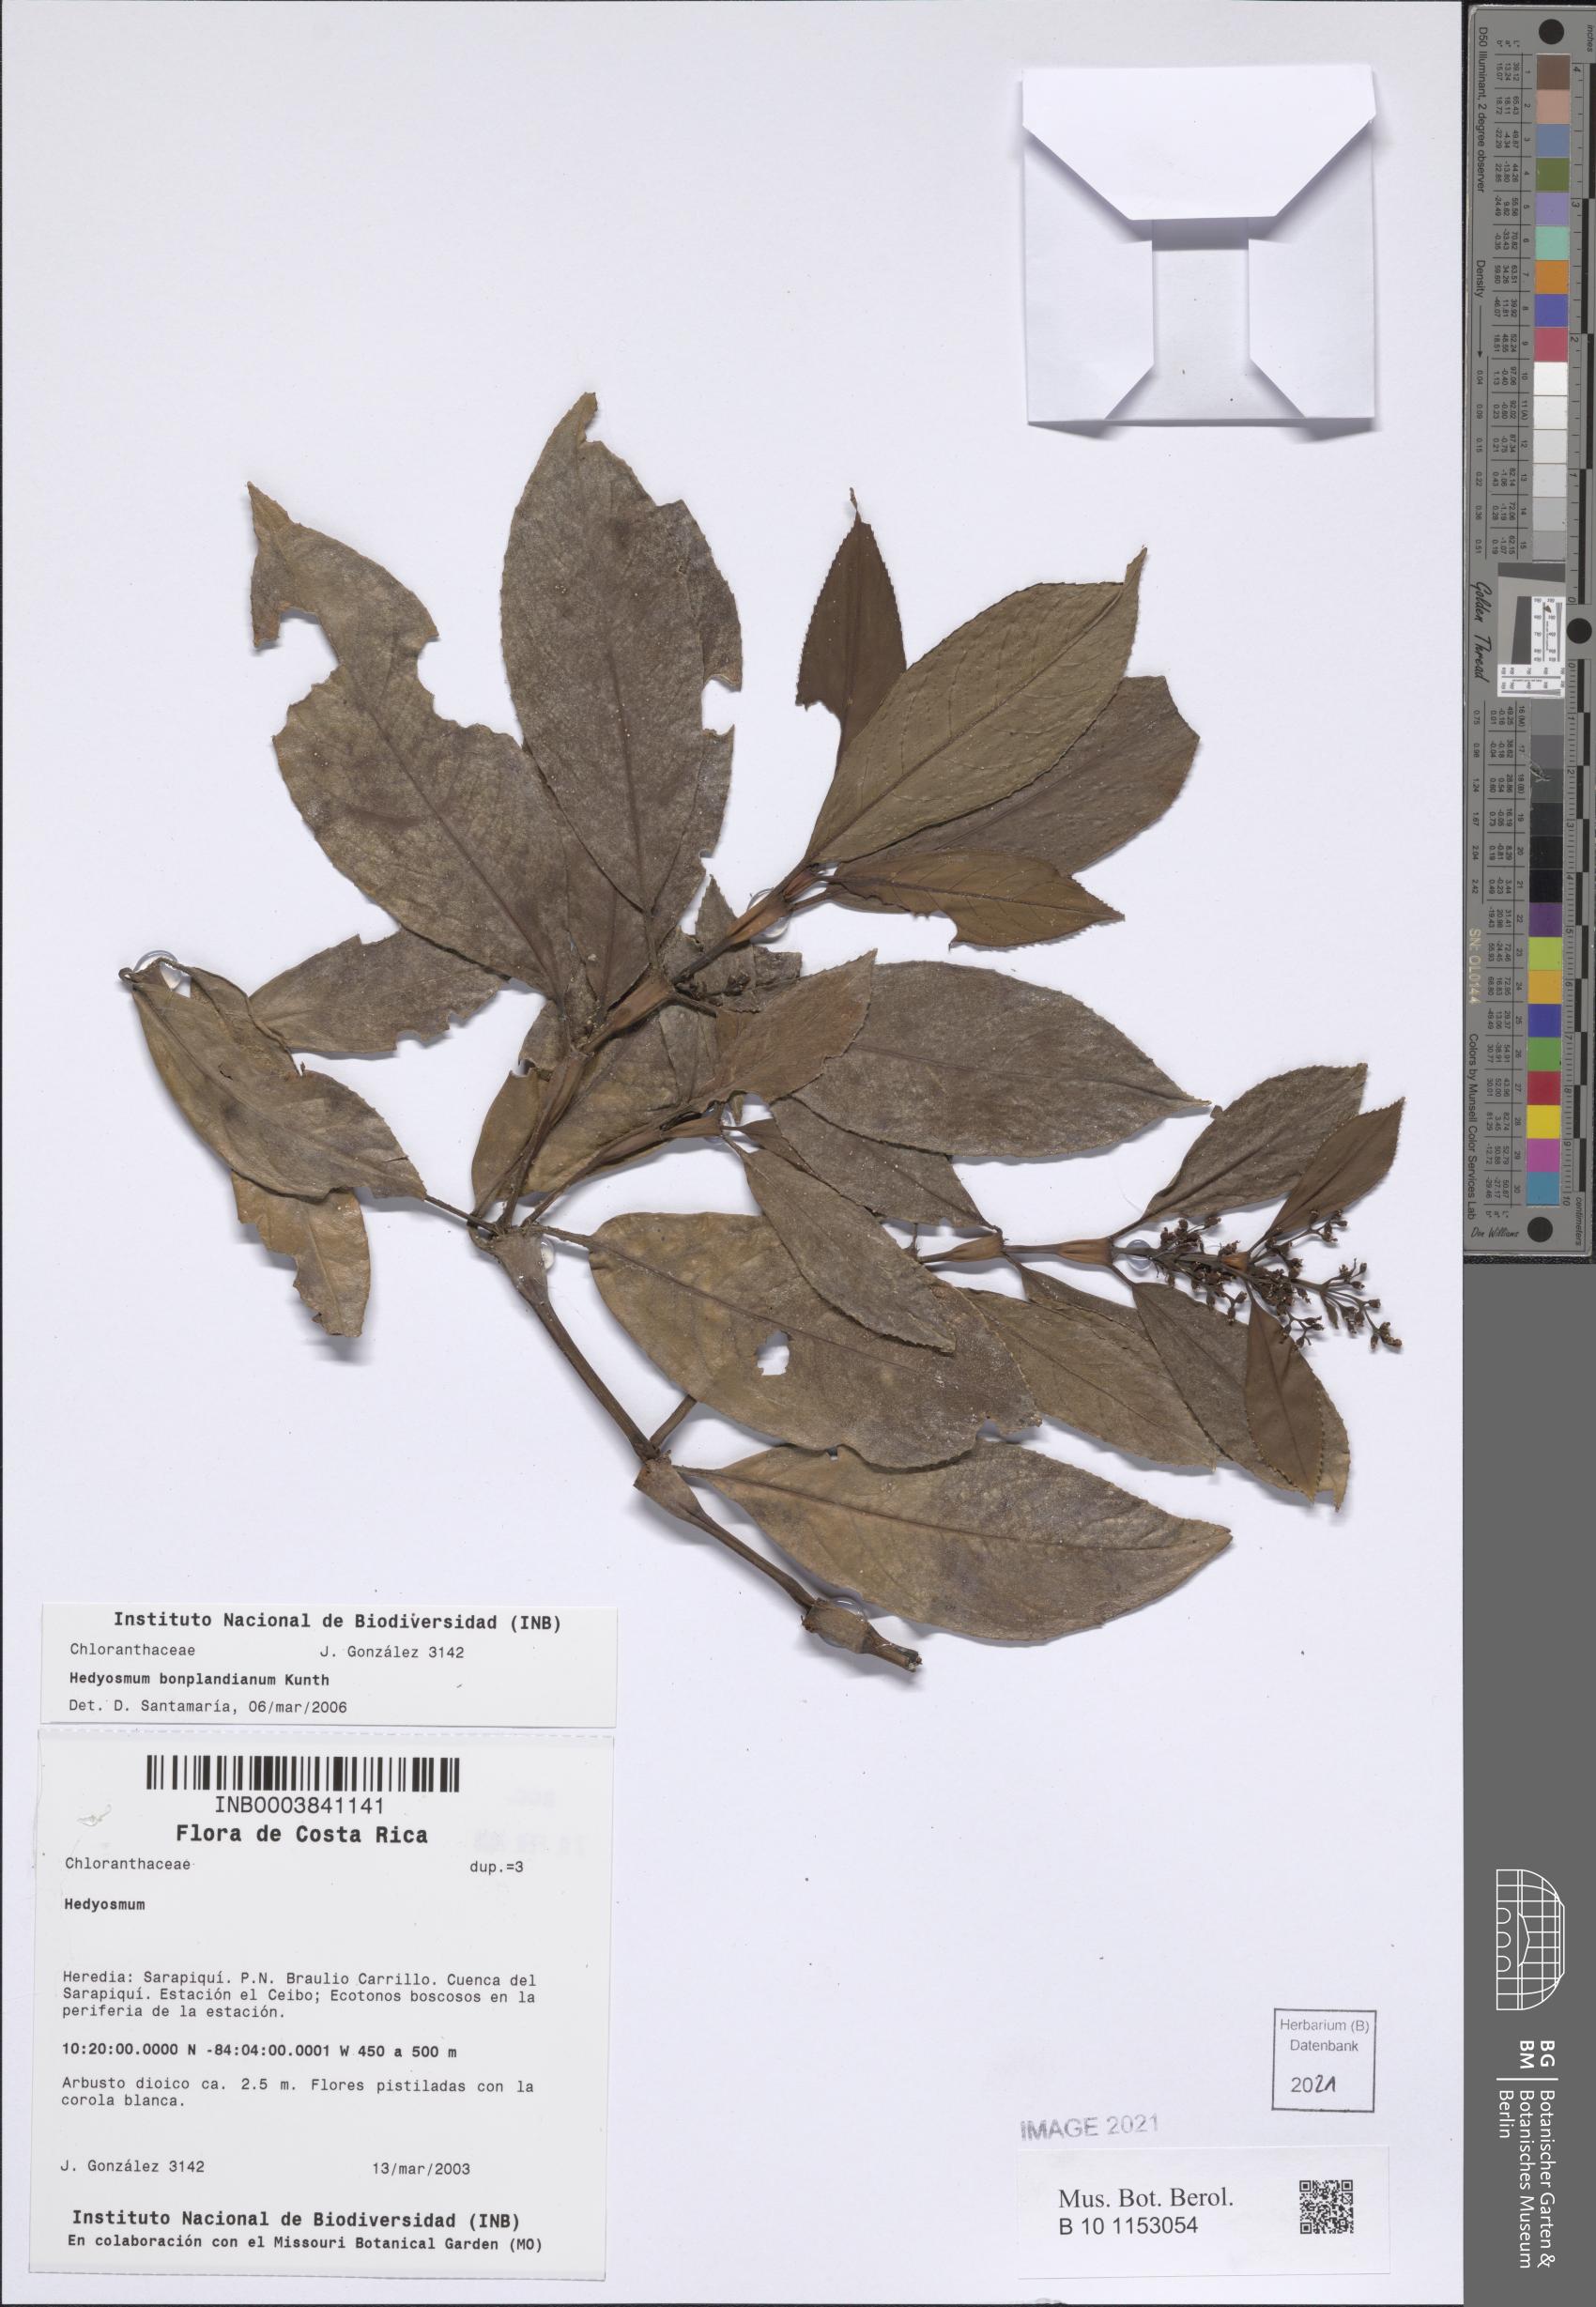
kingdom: Plantae
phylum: Tracheophyta
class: Magnoliopsida
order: Chloranthales
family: Chloranthaceae
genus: Hedyosmum
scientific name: Hedyosmum bonplandianum
